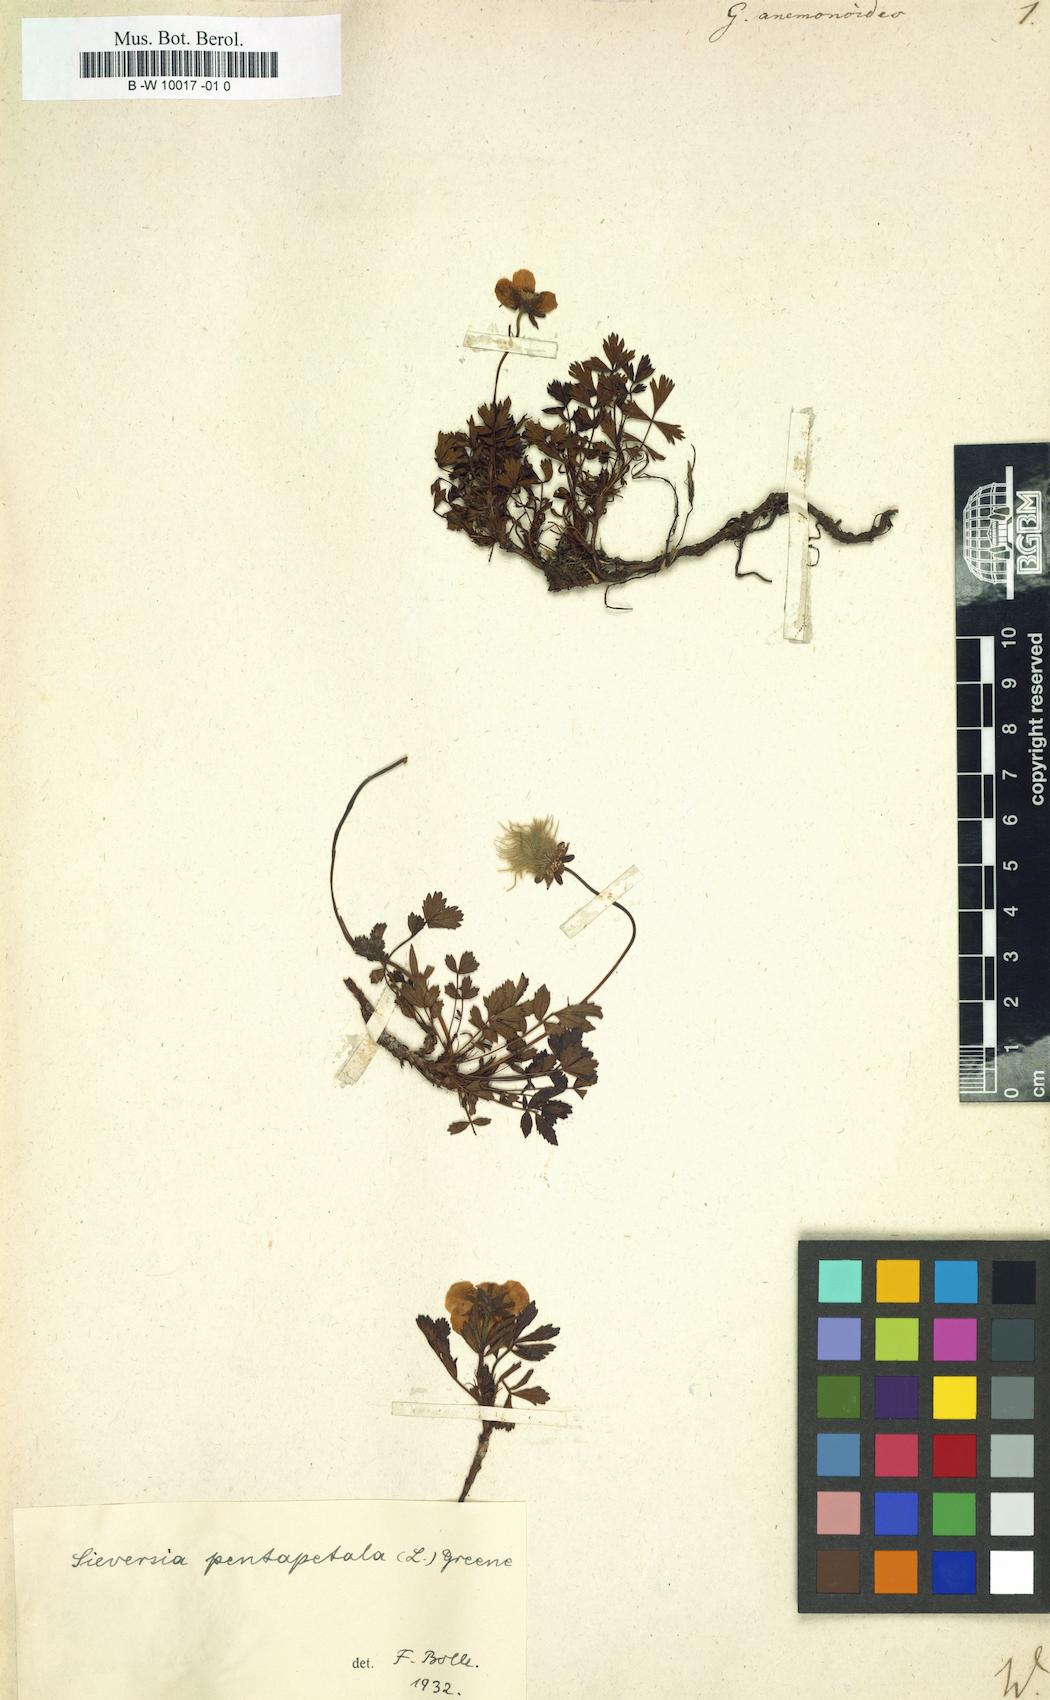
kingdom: Plantae
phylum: Tracheophyta
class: Magnoliopsida
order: Rosales
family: Rosaceae
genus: Geum
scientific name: Geum pentapetalum
